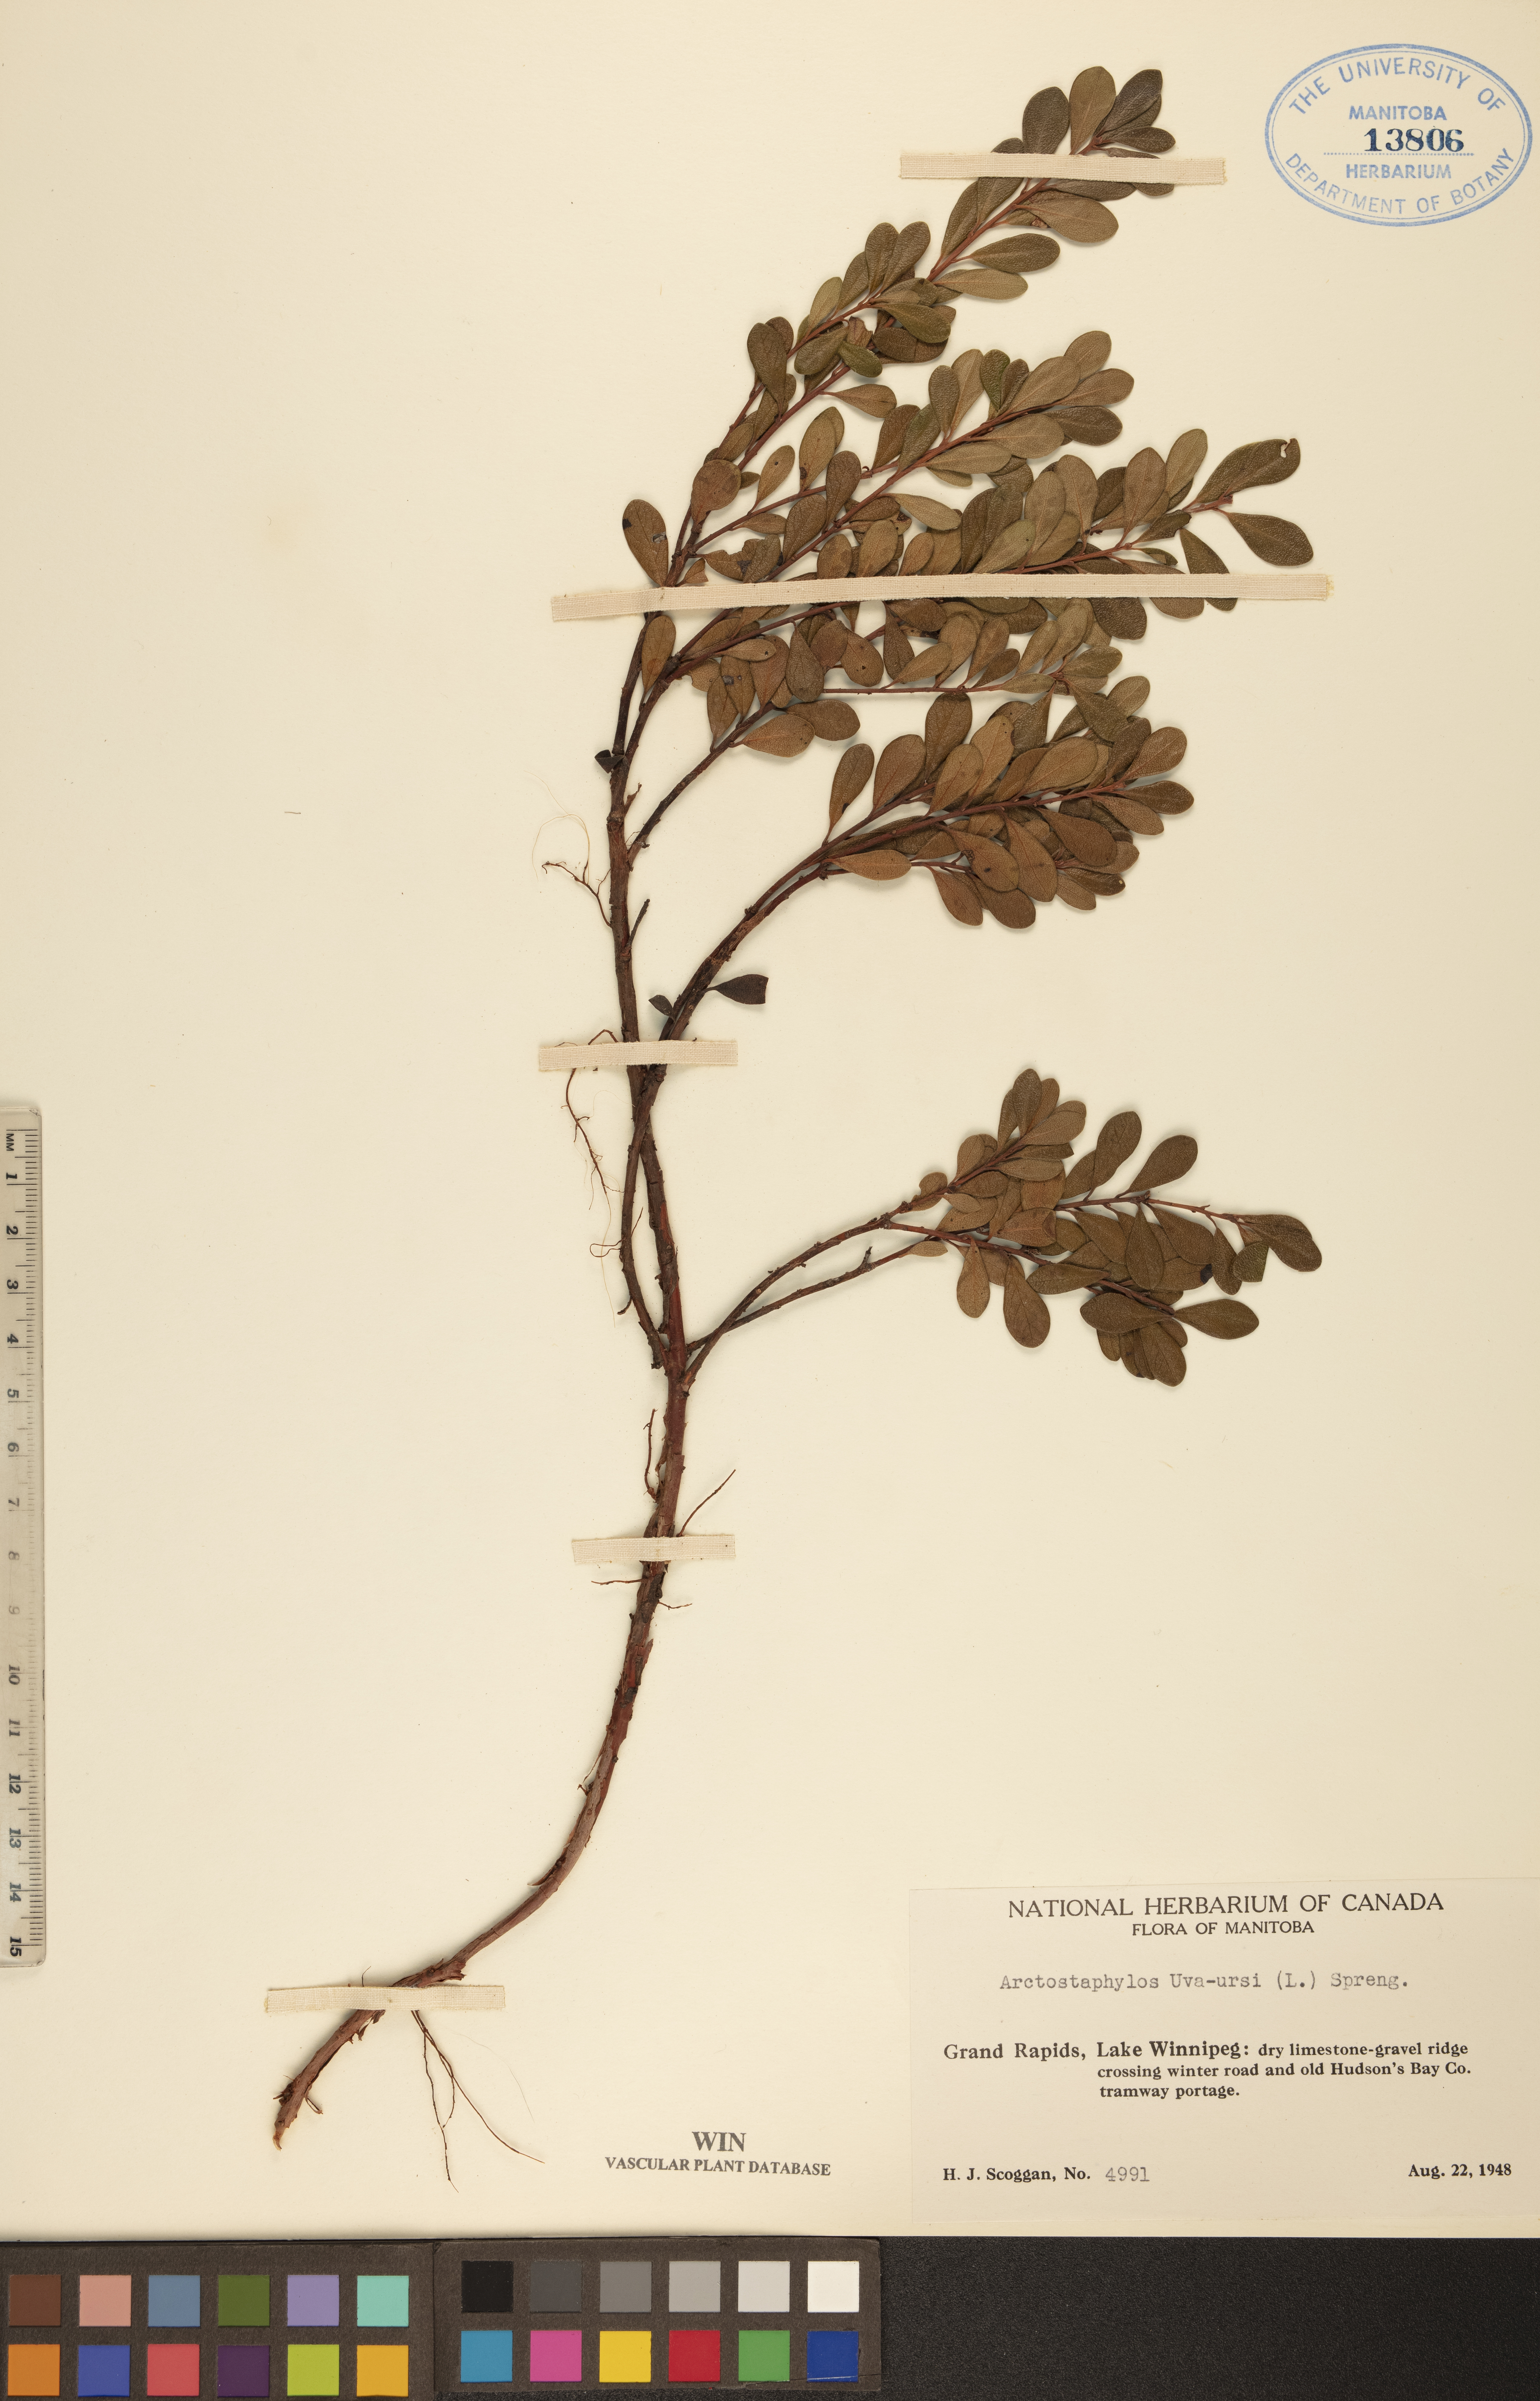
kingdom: Plantae
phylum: Tracheophyta
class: Magnoliopsida
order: Ericales
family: Ericaceae
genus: Arctostaphylos
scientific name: Arctostaphylos uva-ursi
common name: Bearberry
